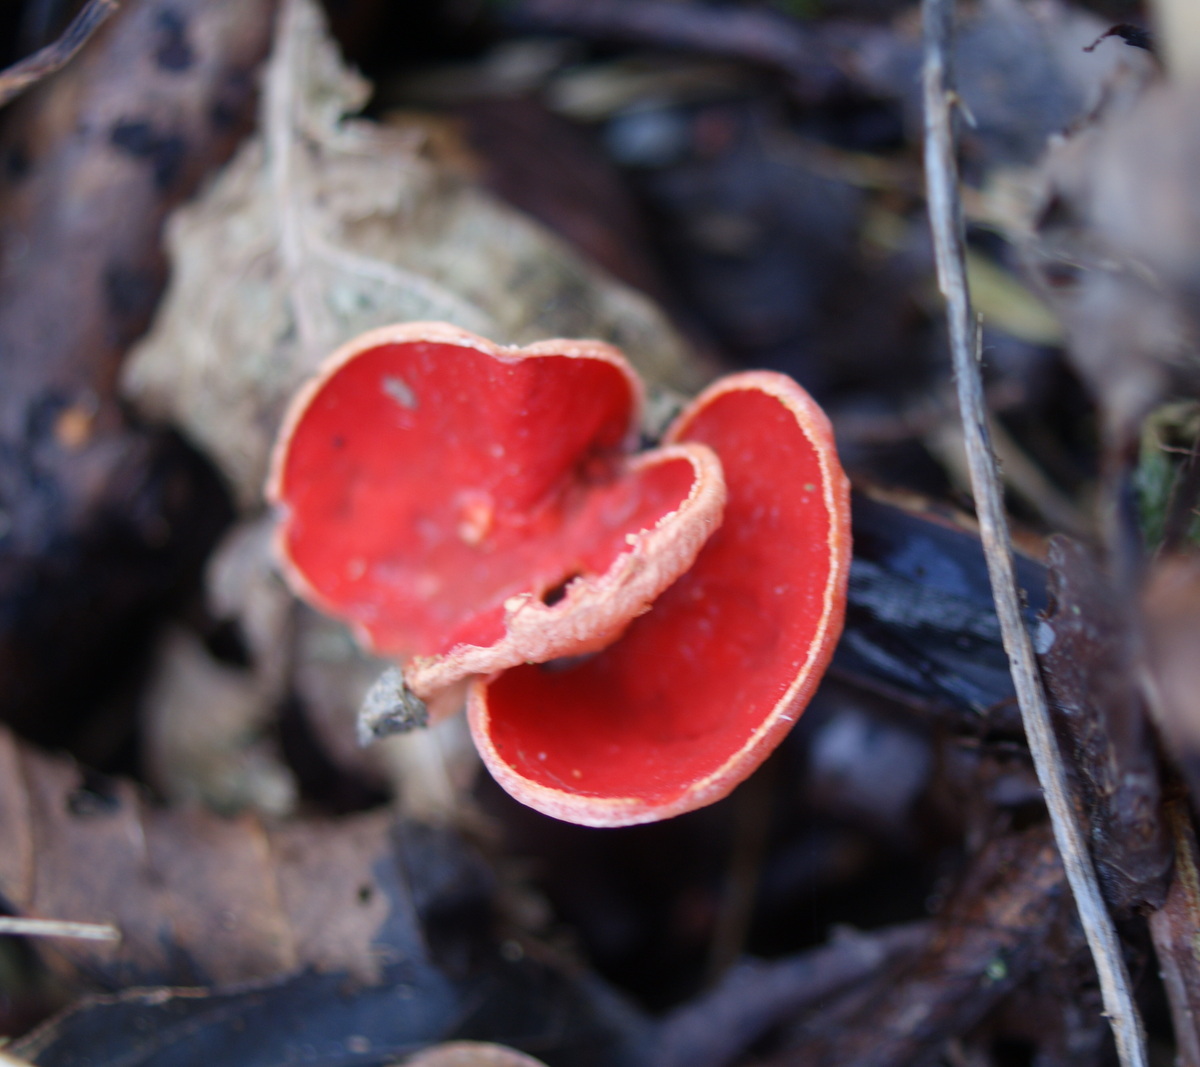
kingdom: Fungi
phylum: Ascomycota
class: Pezizomycetes
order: Pezizales
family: Sarcoscyphaceae
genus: Sarcoscypha
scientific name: Sarcoscypha austriaca
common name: krølhåret pragtbæger
